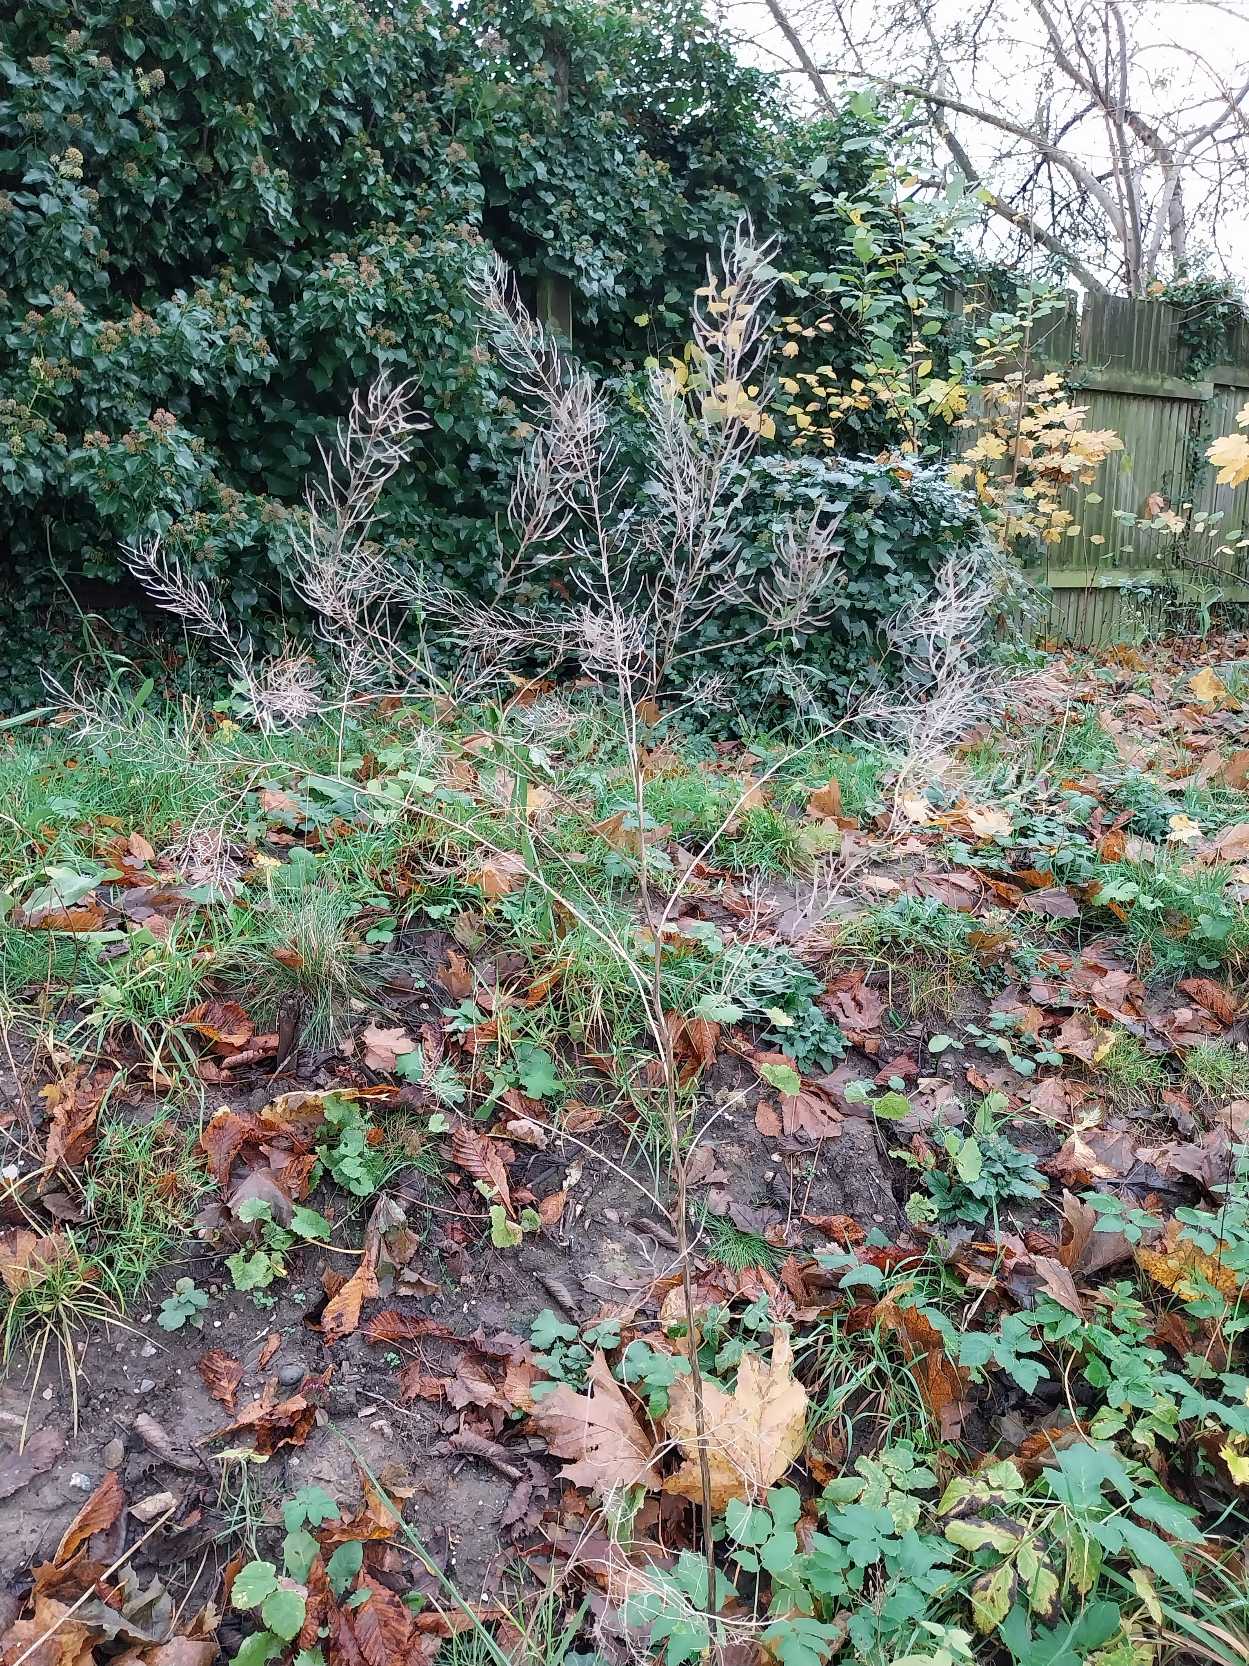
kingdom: Plantae
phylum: Tracheophyta
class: Magnoliopsida
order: Brassicales
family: Brassicaceae
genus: Descurainia
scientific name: Descurainia sophia
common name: Finbladet vejsennep
